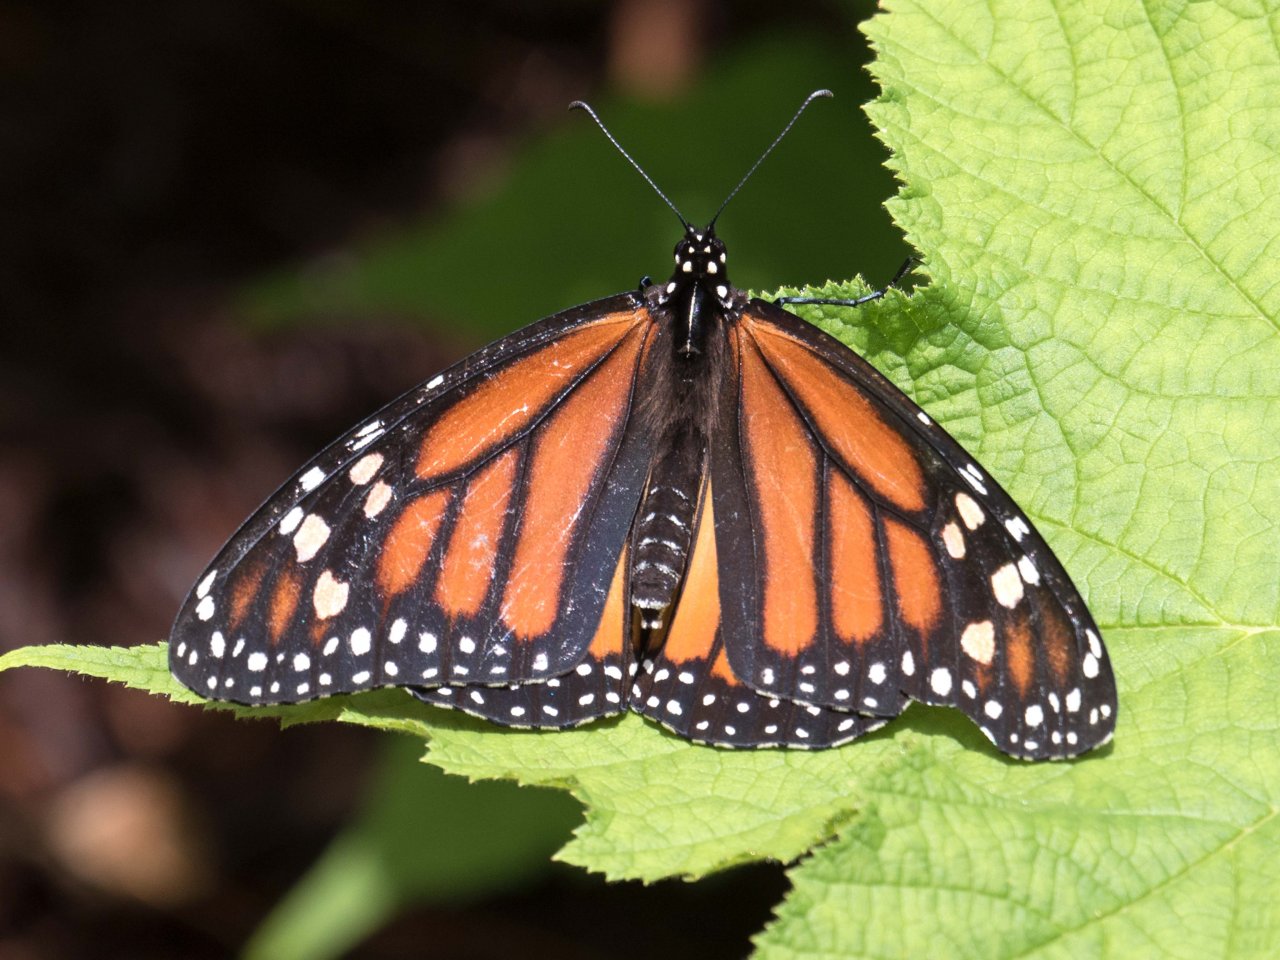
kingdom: Animalia
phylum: Arthropoda
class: Insecta
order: Lepidoptera
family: Nymphalidae
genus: Danaus
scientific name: Danaus plexippus
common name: Monarch
